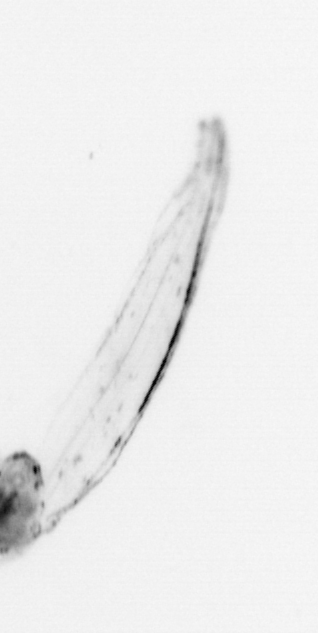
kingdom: Animalia
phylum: Chaetognatha
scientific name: Chaetognatha
